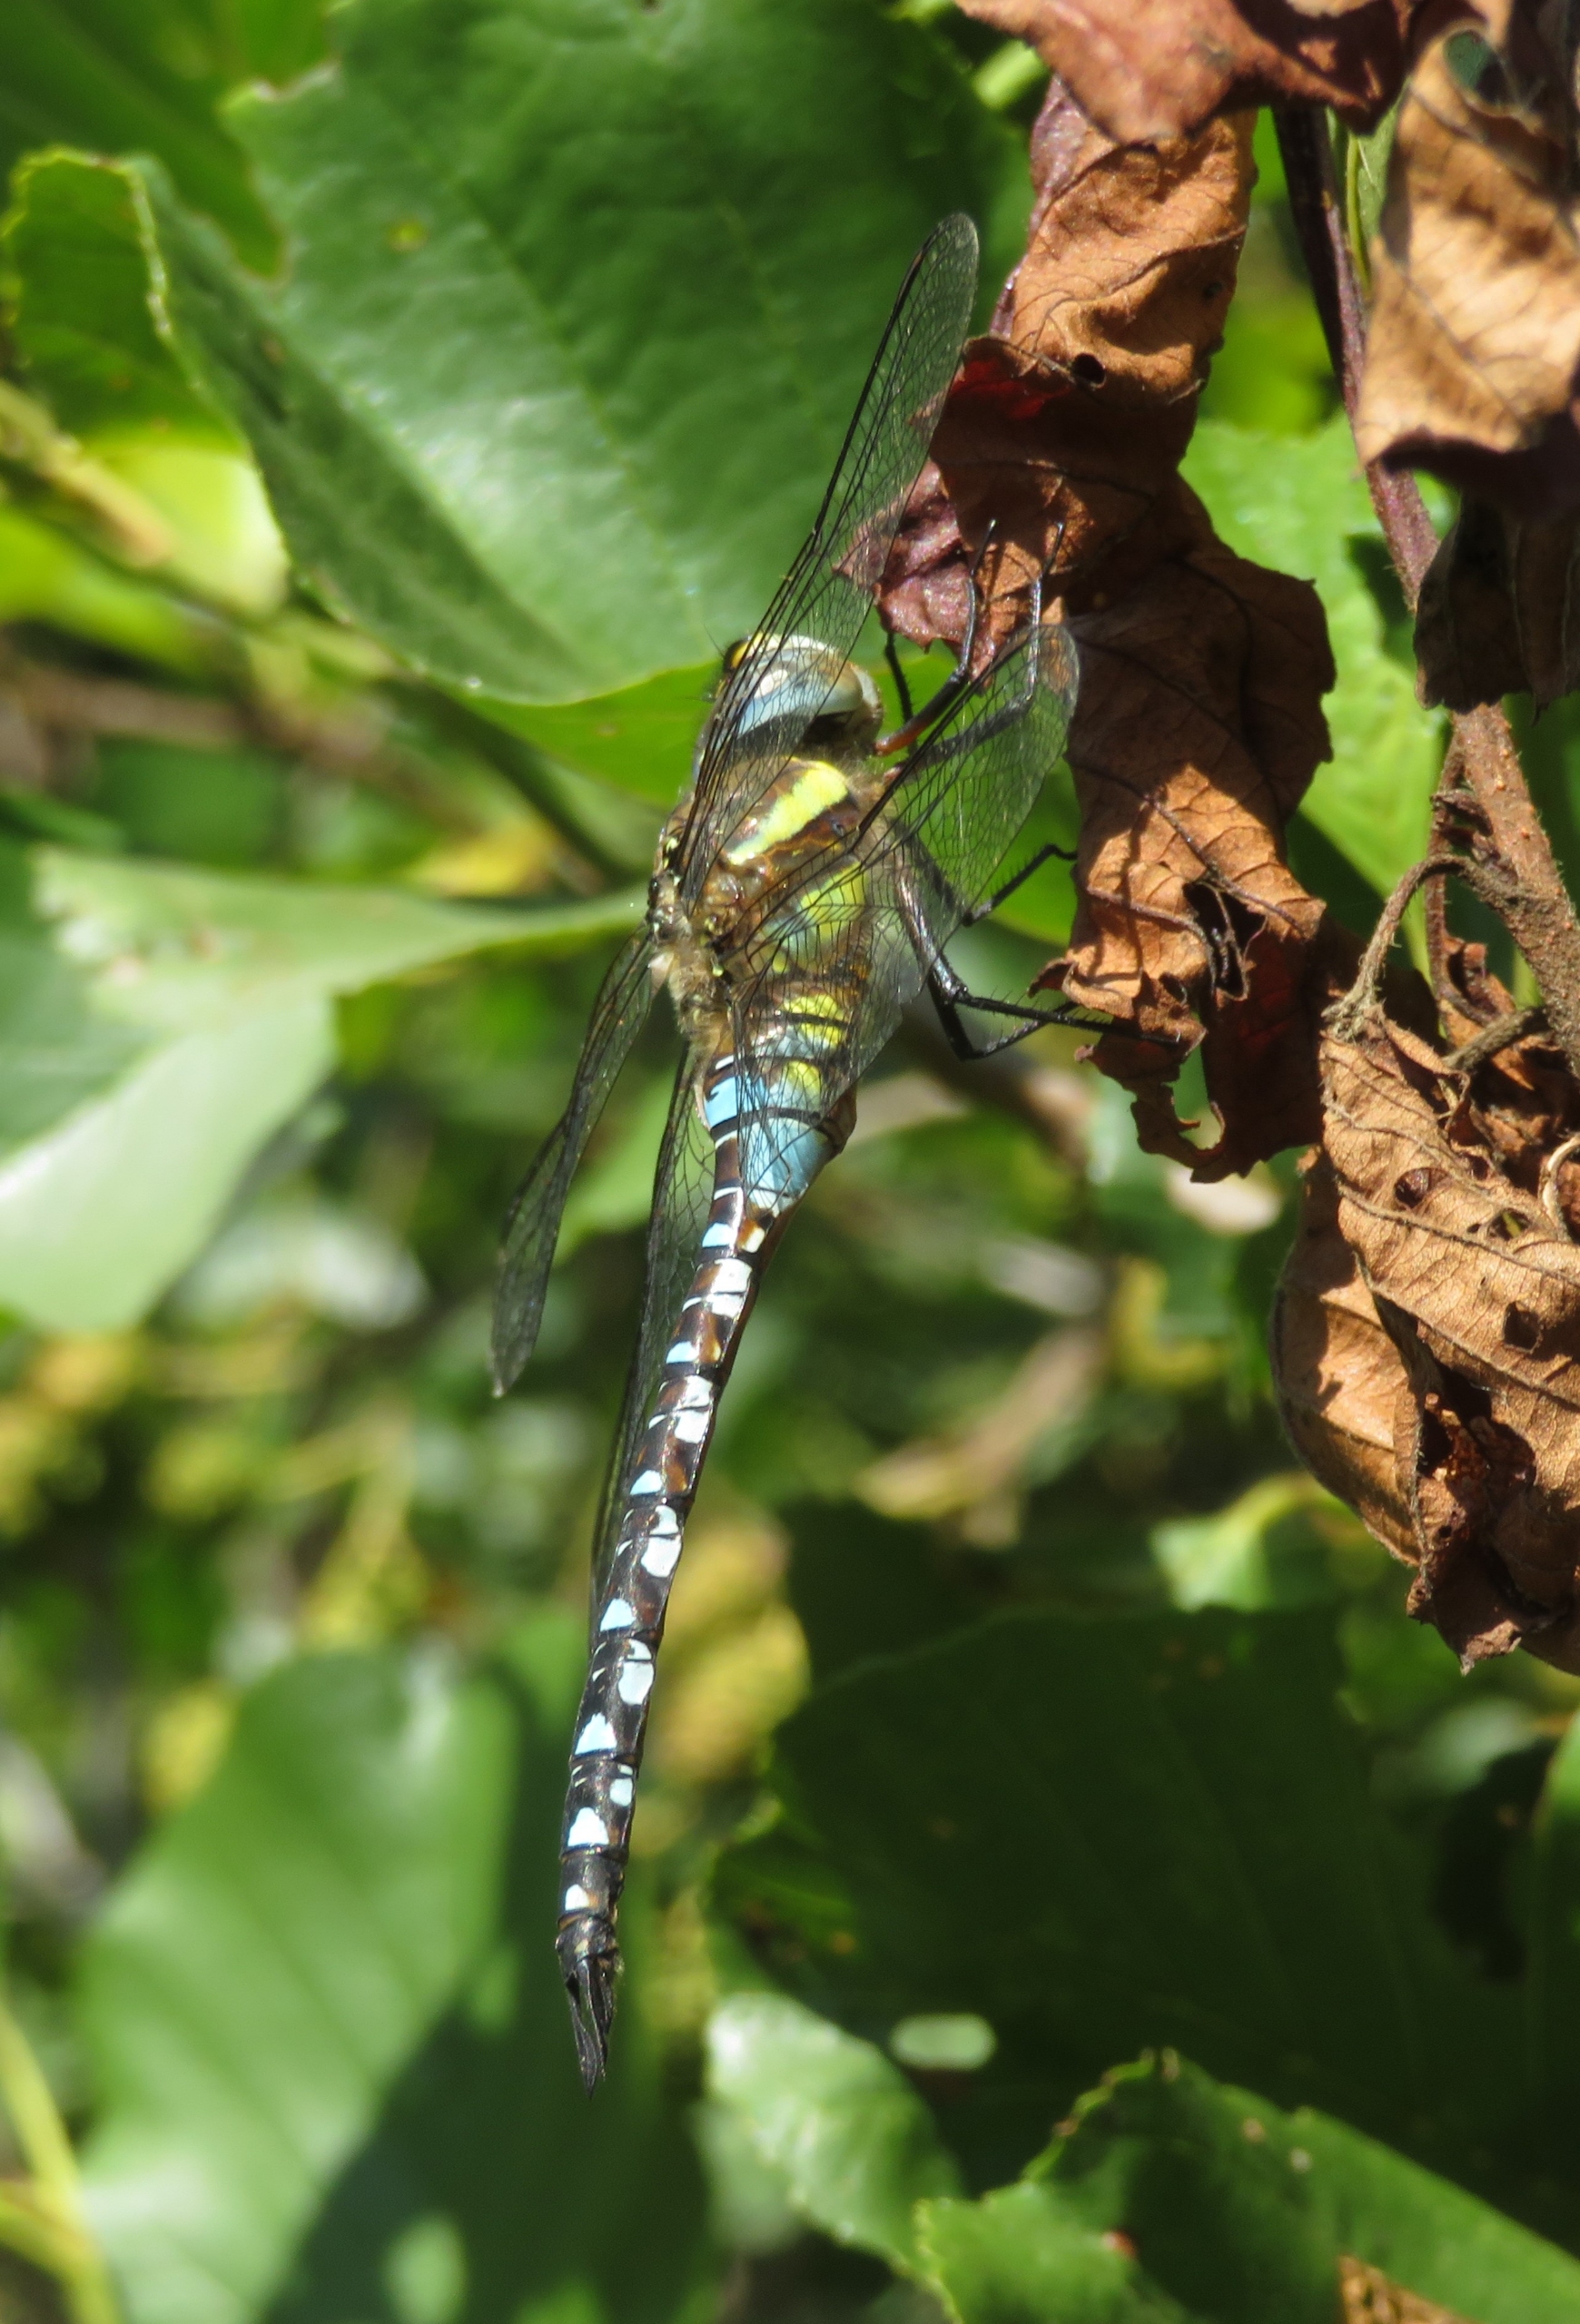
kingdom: Animalia
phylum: Arthropoda
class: Insecta
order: Odonata
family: Aeshnidae
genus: Aeshna
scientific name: Aeshna mixta
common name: Efterårs-mosaikguldsmed
